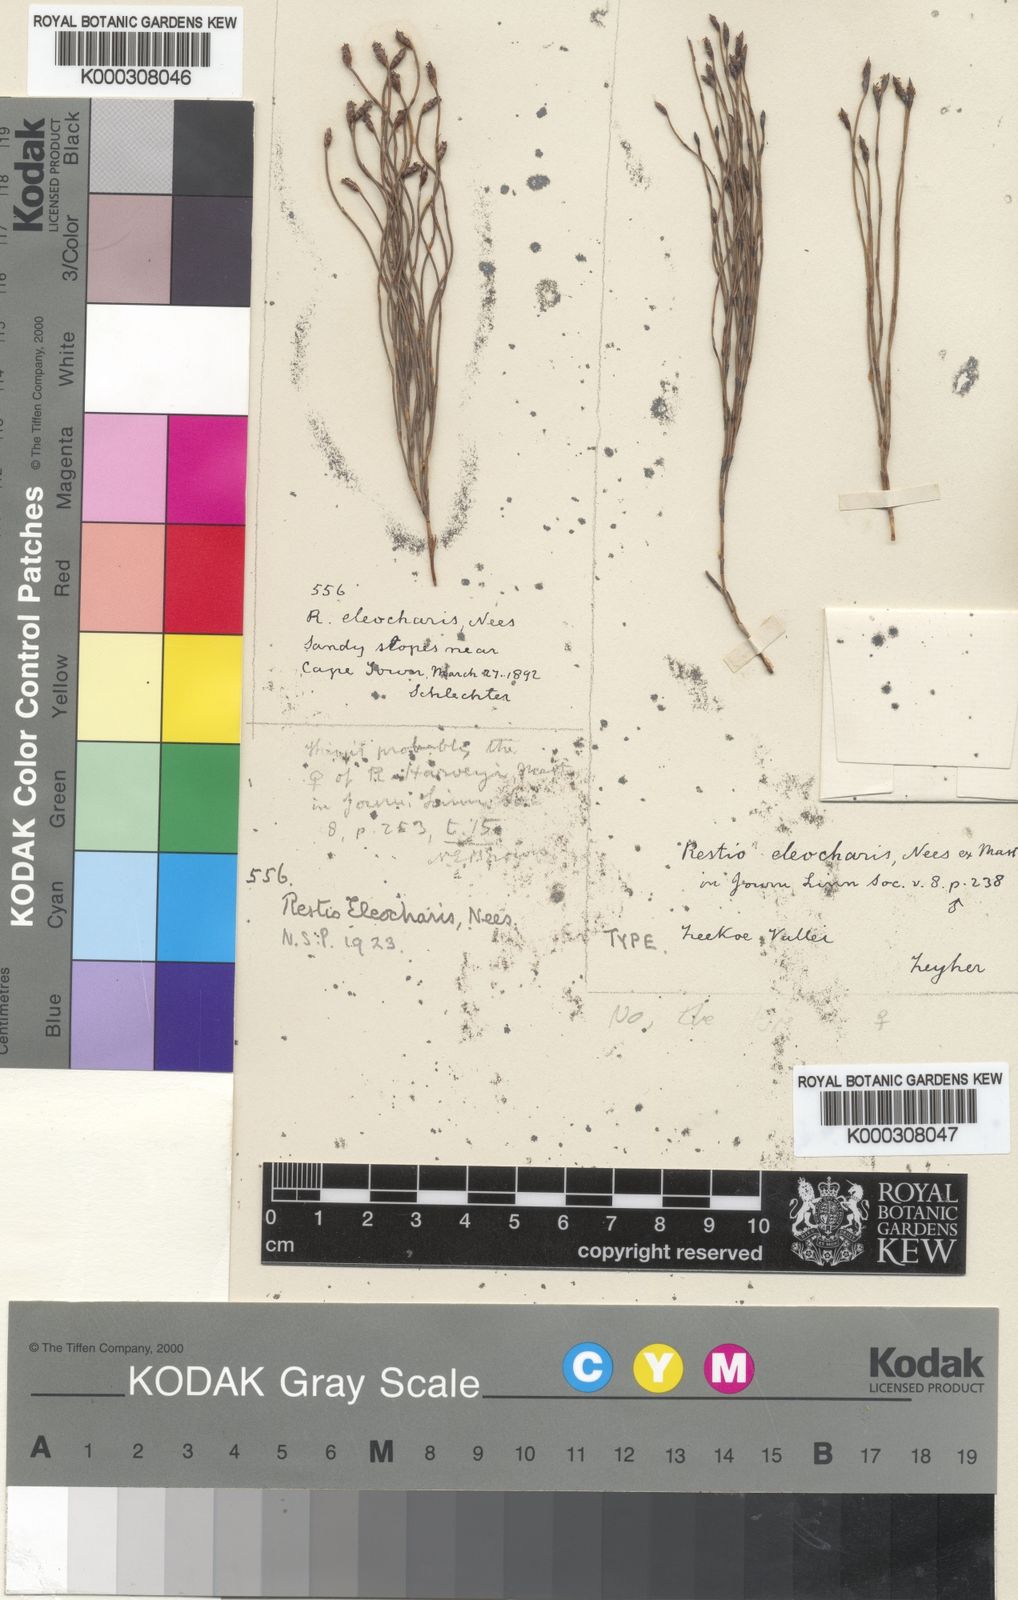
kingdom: Plantae
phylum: Tracheophyta
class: Liliopsida
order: Poales
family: Restionaceae
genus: Restio
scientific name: Restio eleocharis
